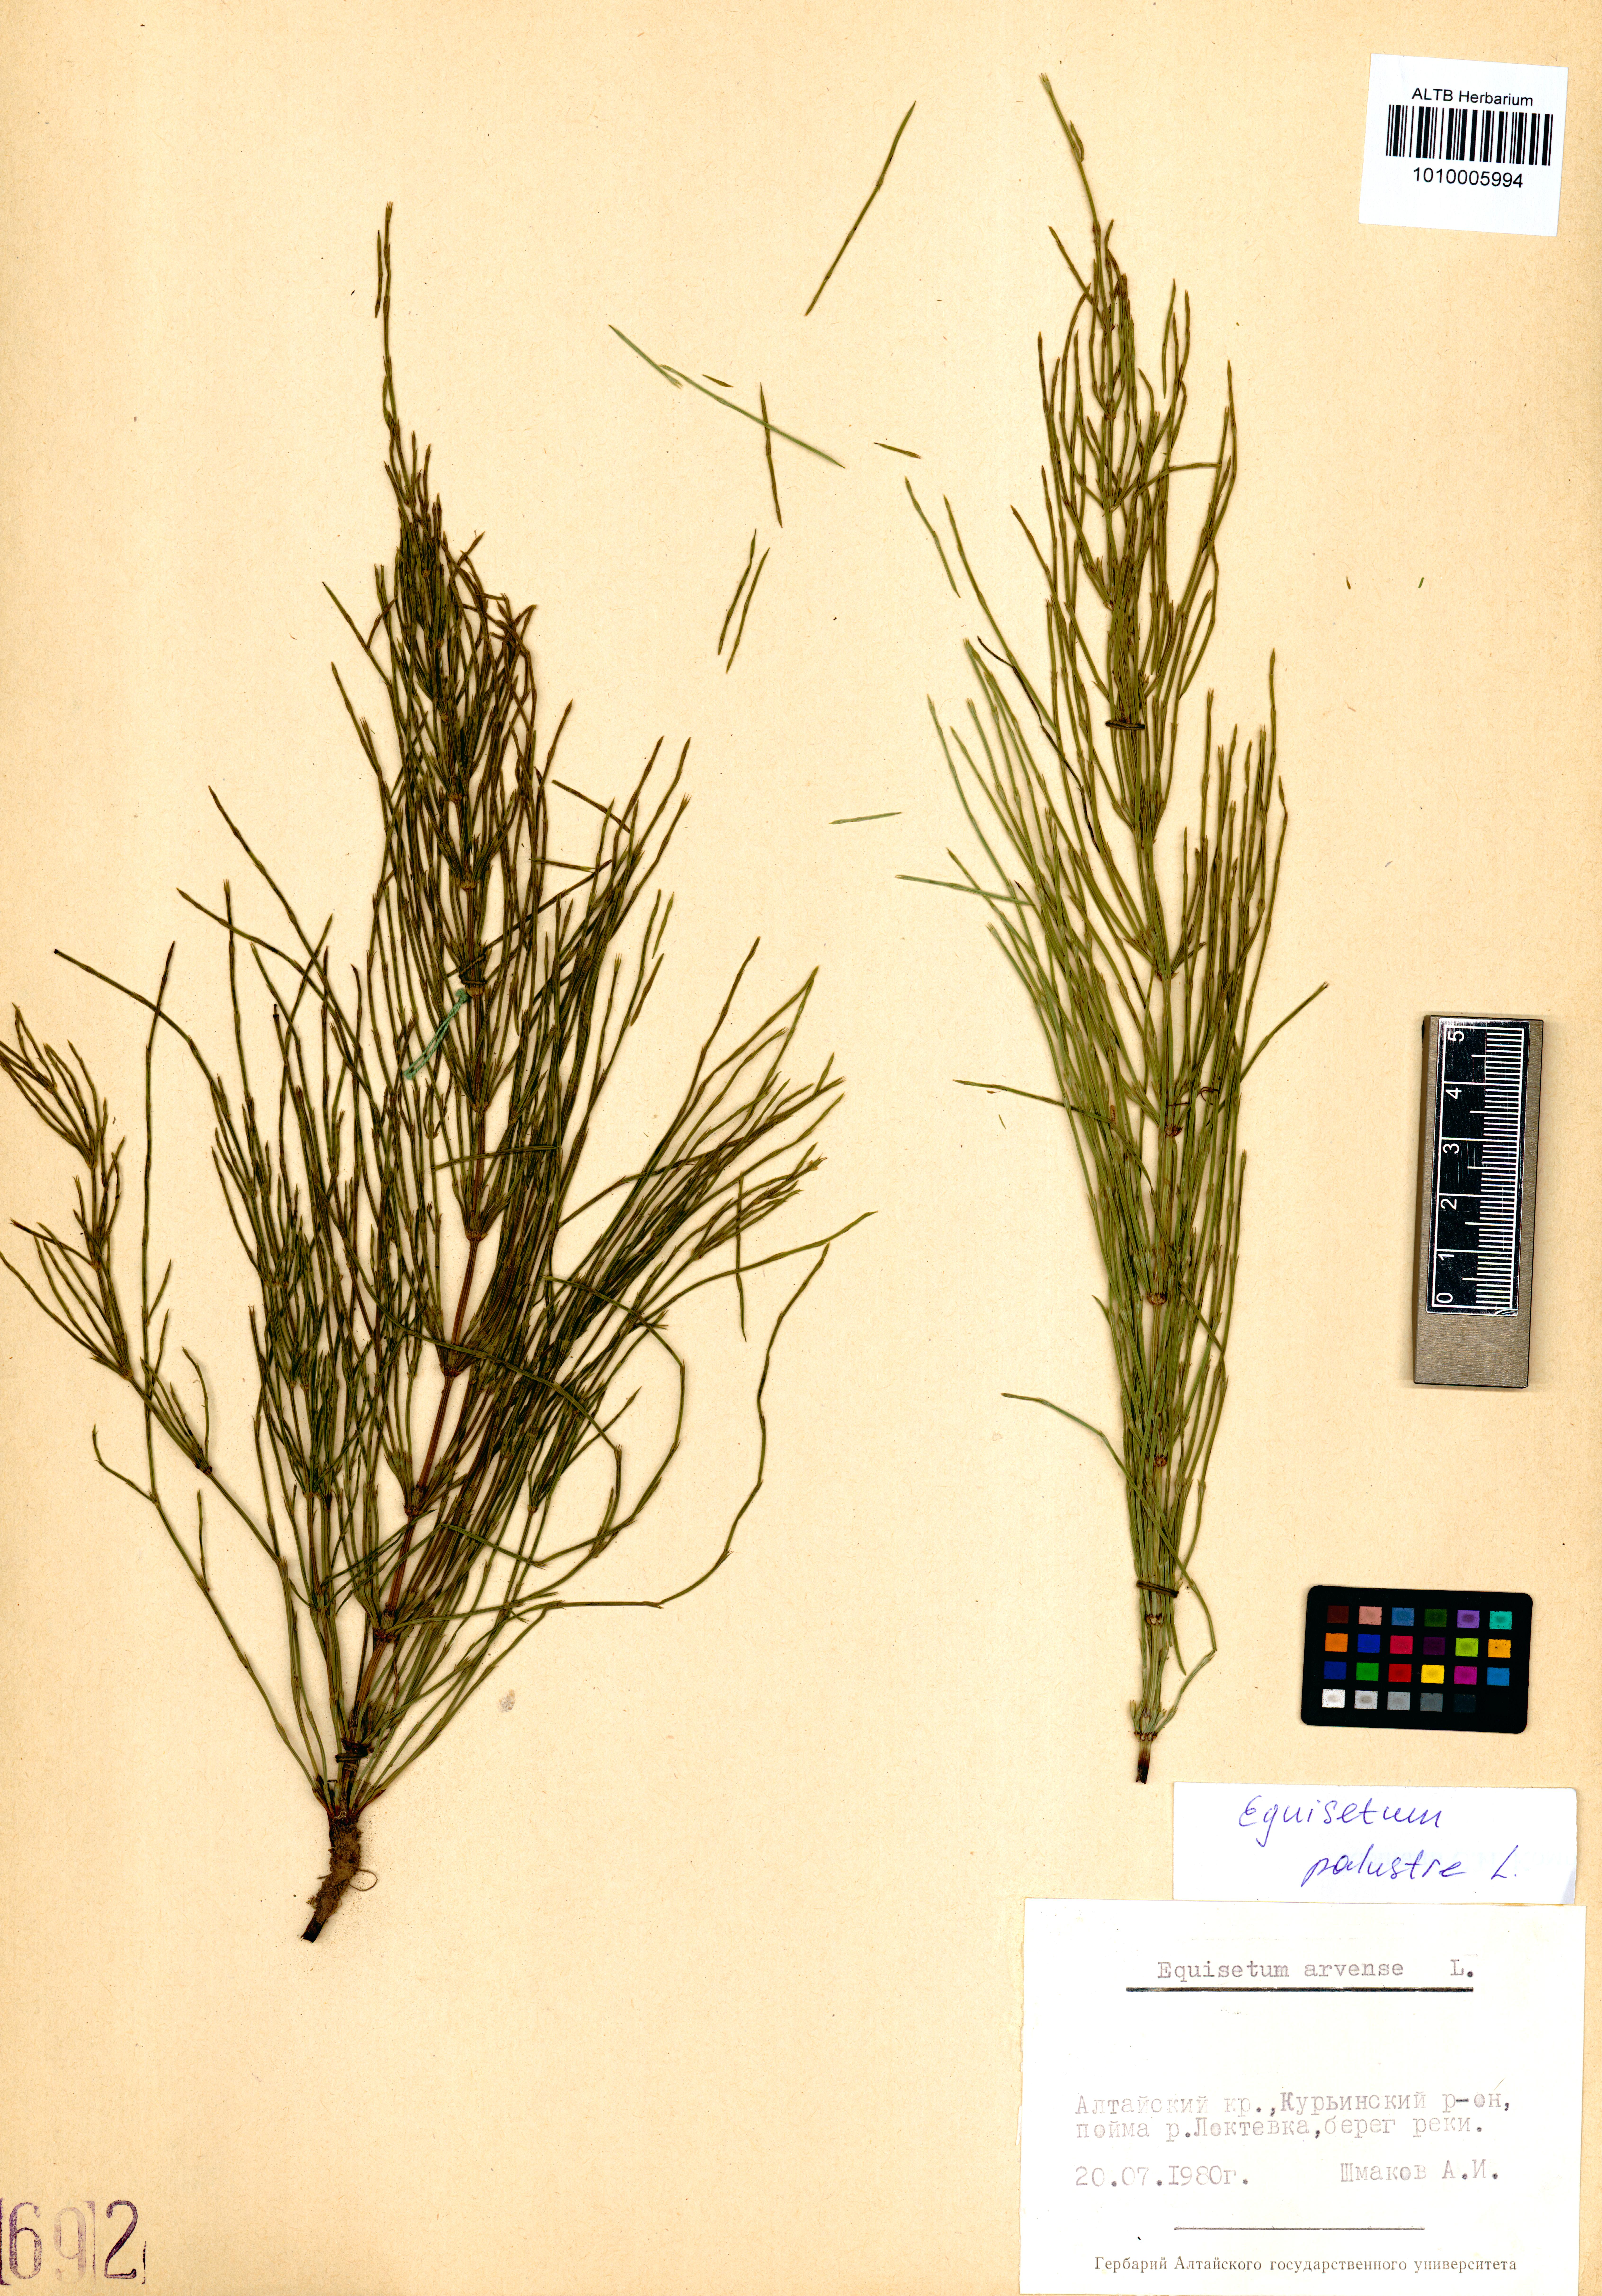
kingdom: Plantae
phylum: Tracheophyta
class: Polypodiopsida
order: Equisetales
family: Equisetaceae
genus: Equisetum
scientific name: Equisetum palustre
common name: Marsh horsetail
